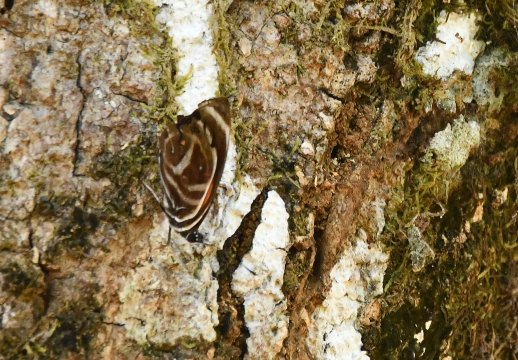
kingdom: Animalia
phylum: Arthropoda
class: Insecta
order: Lepidoptera
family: Nymphalidae
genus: Catagramma
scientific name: Catagramma texa
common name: Yellow-rimmed Eighty-eight
